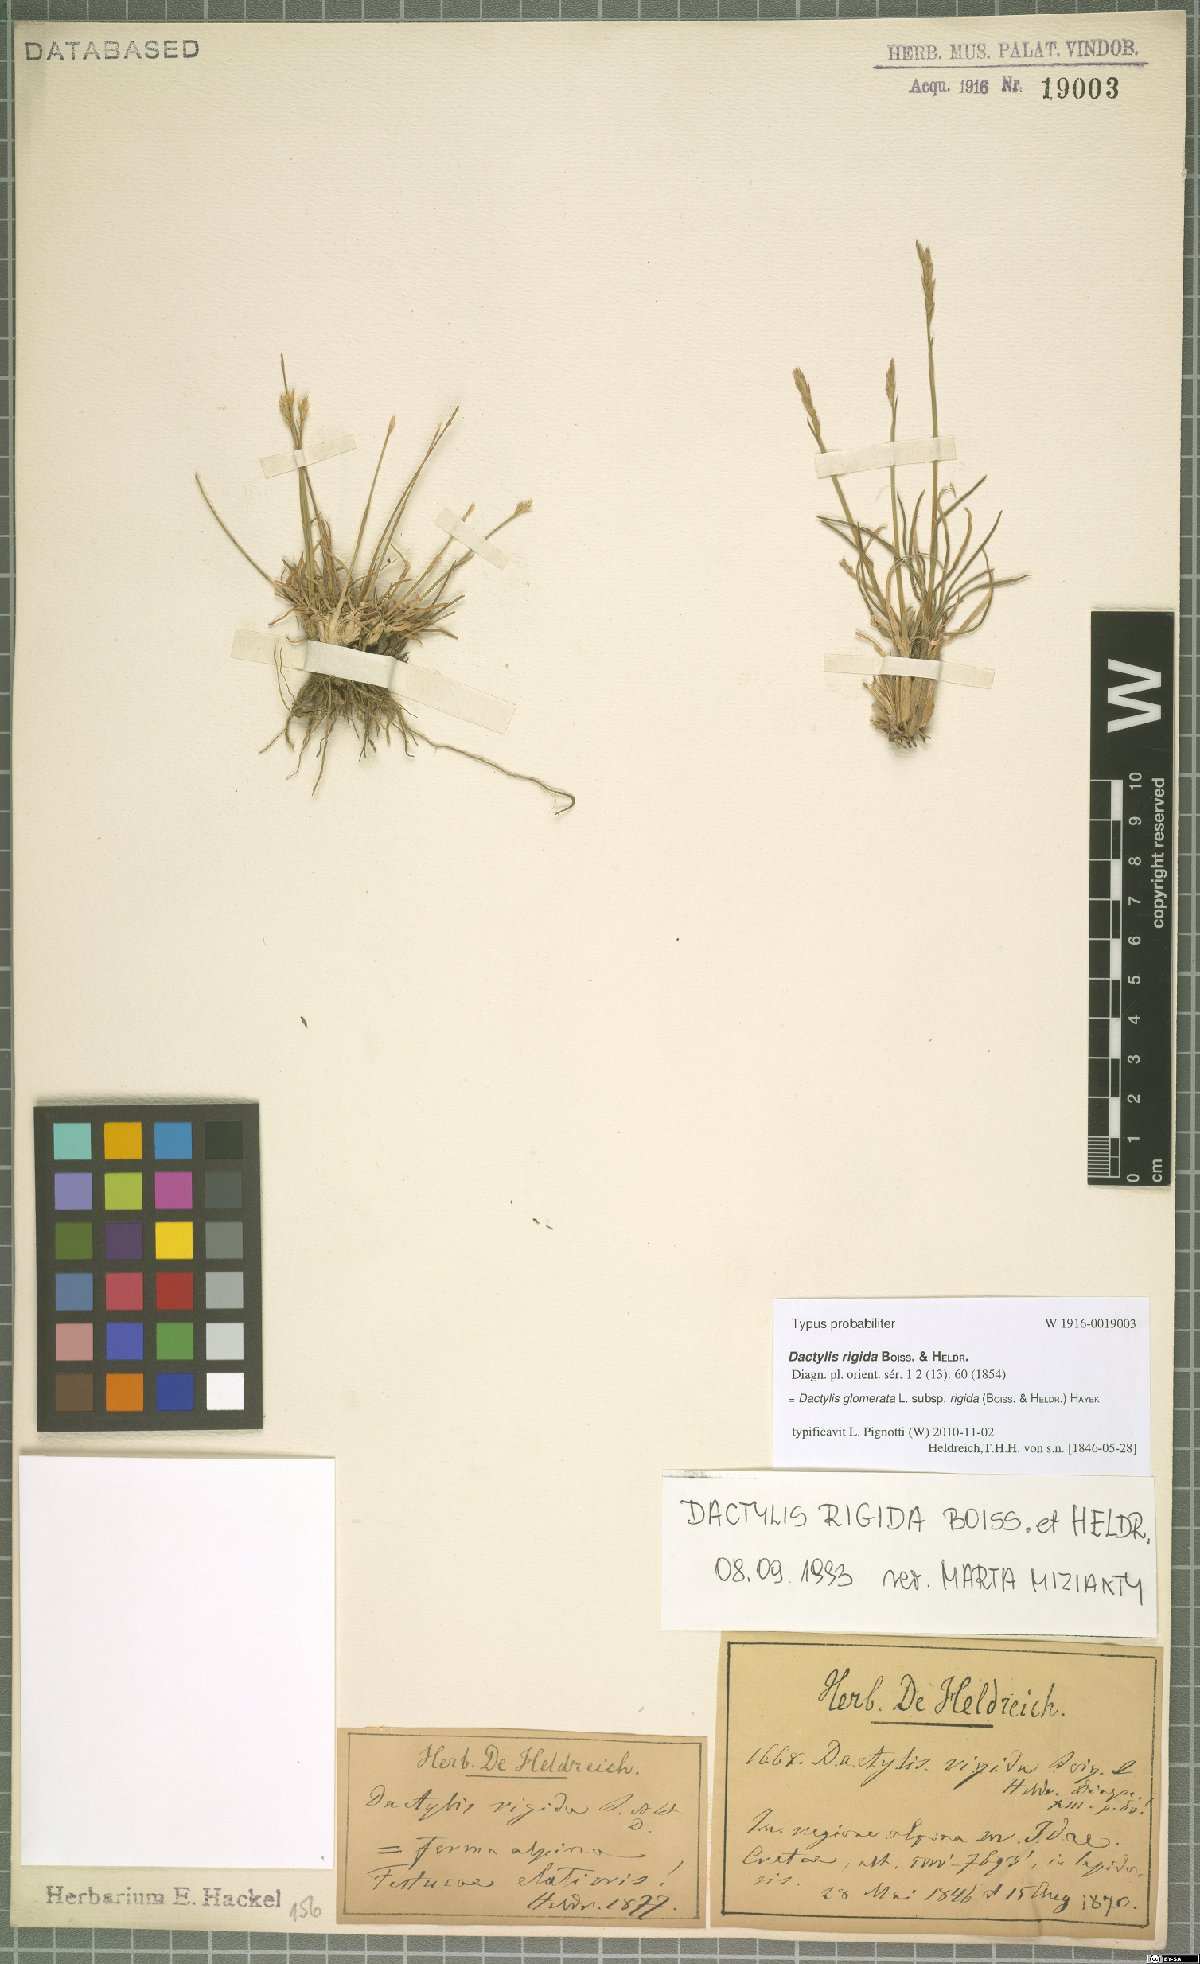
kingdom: Plantae
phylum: Tracheophyta
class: Liliopsida
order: Poales
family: Poaceae
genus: Dactylis
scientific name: Dactylis glomerata
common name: Orchardgrass
